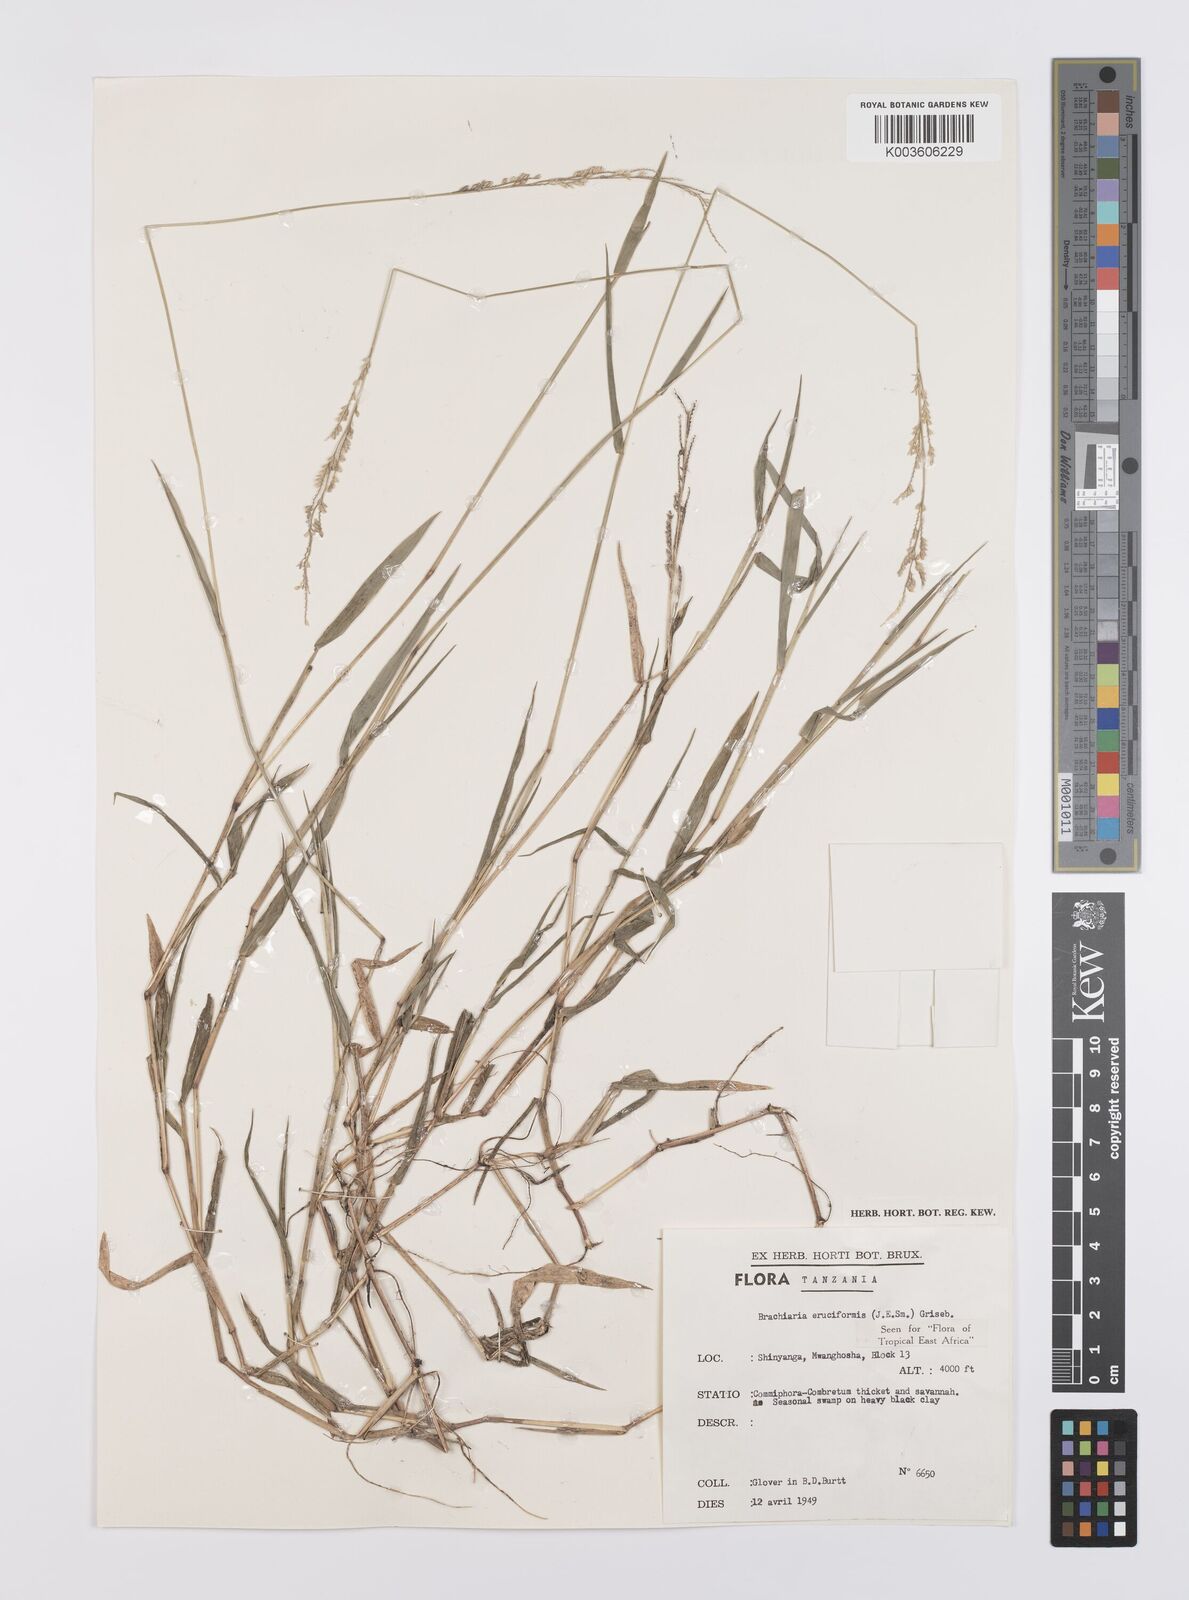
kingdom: Plantae
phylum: Tracheophyta
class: Liliopsida
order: Poales
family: Poaceae
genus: Moorochloa
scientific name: Moorochloa eruciformis
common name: Sweet signalgrass
